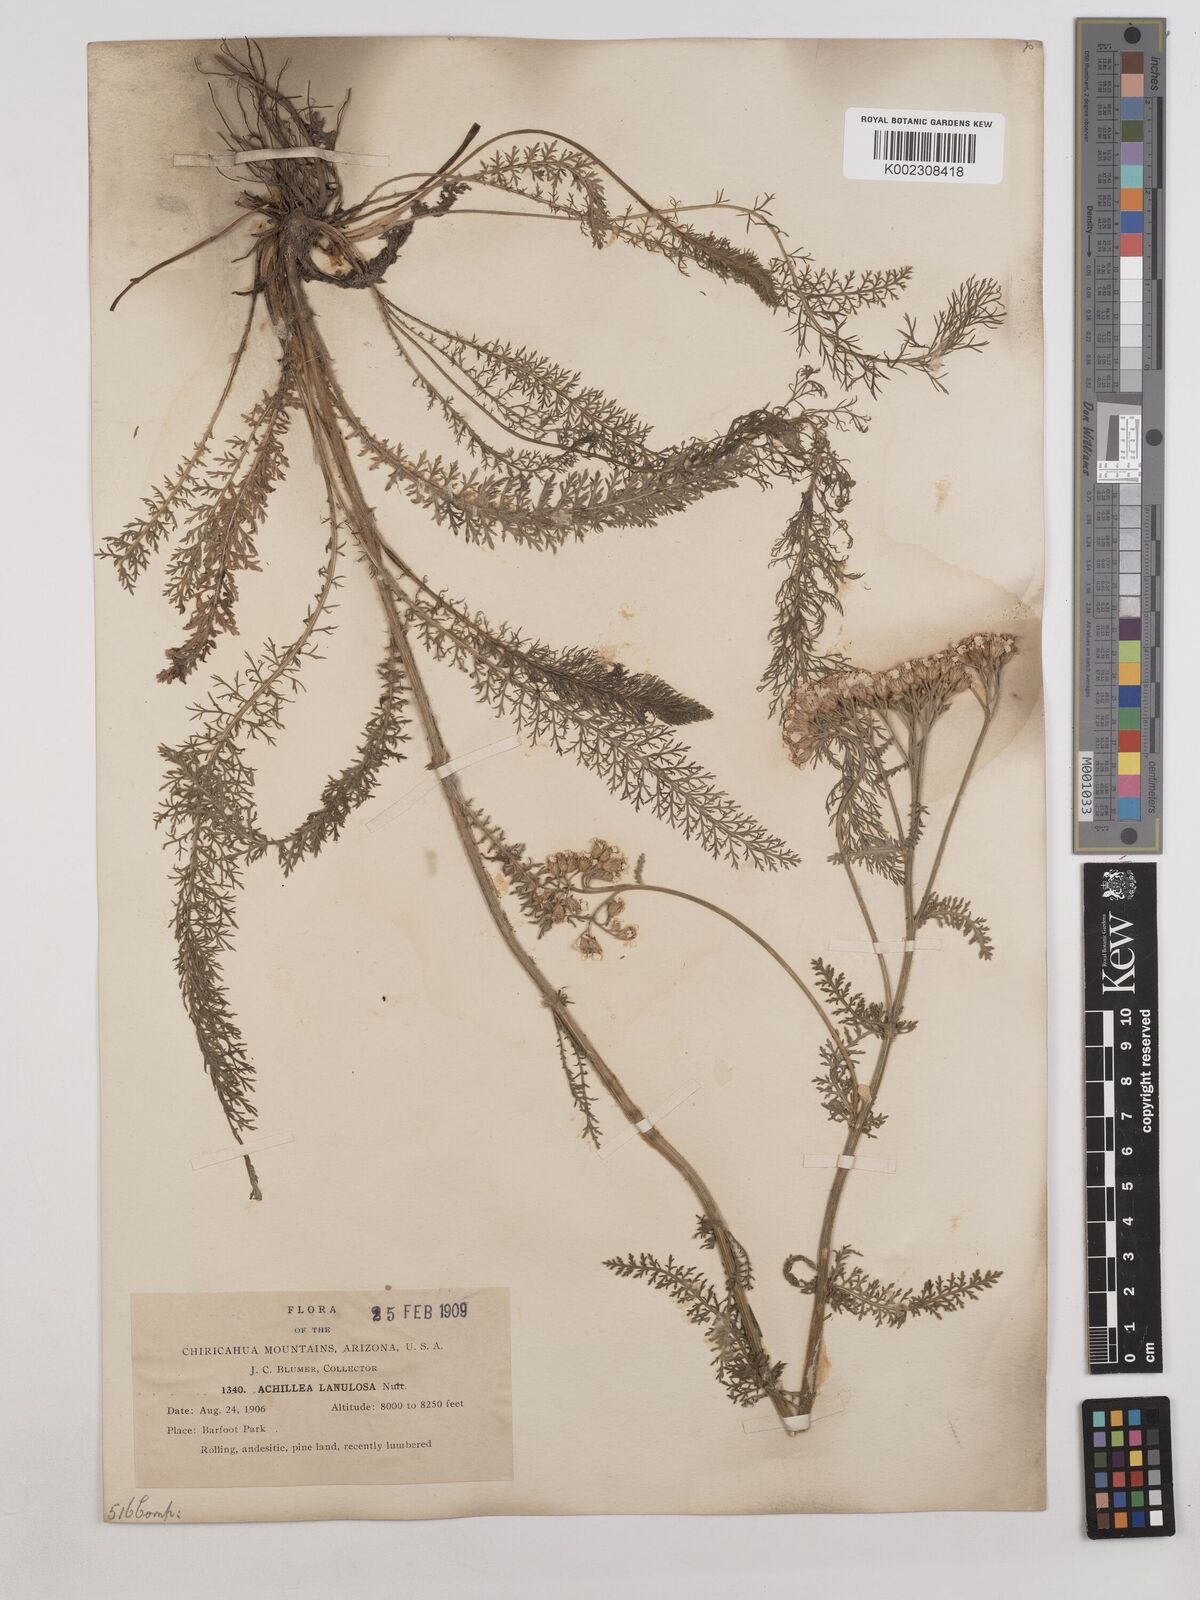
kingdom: Plantae
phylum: Tracheophyta
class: Magnoliopsida
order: Asterales
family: Asteraceae
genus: Achillea
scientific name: Achillea millefolium
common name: Yarrow
